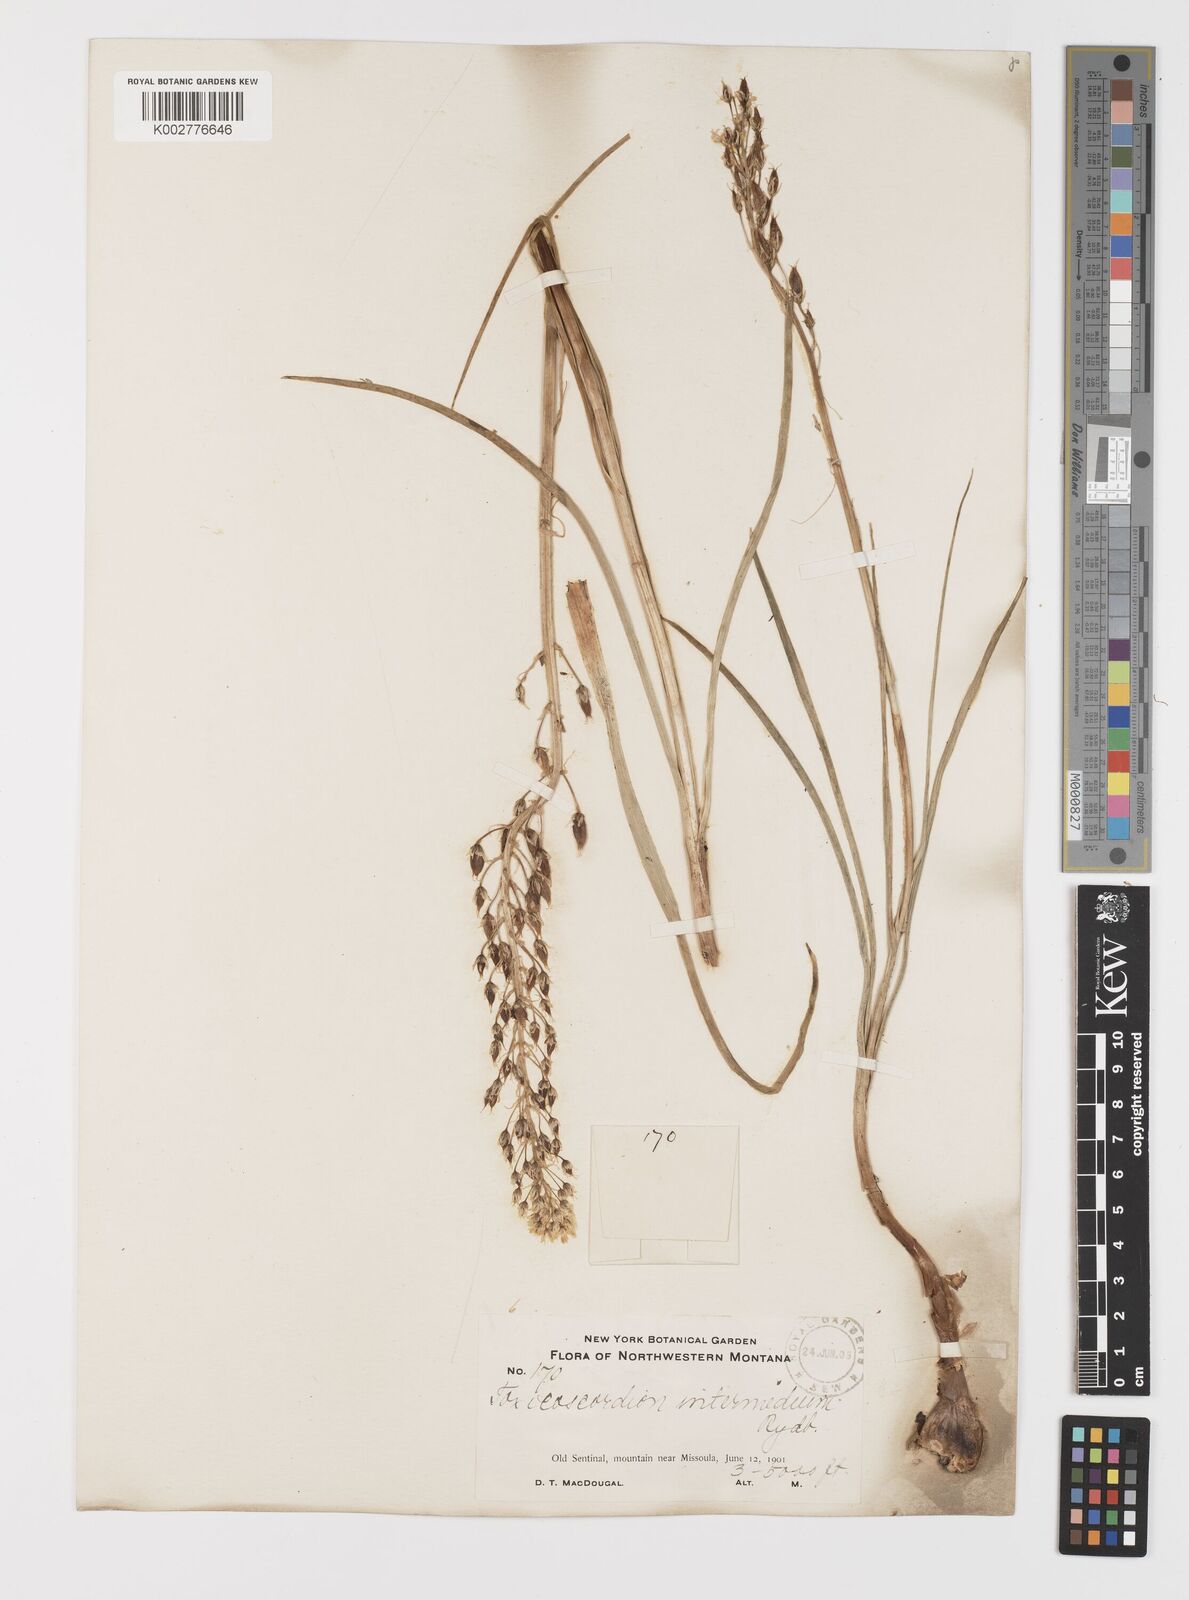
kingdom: Plantae
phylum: Tracheophyta
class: Liliopsida
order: Liliales
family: Melanthiaceae
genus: Toxicoscordion
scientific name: Toxicoscordion venenosum
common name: Meadow death camas
